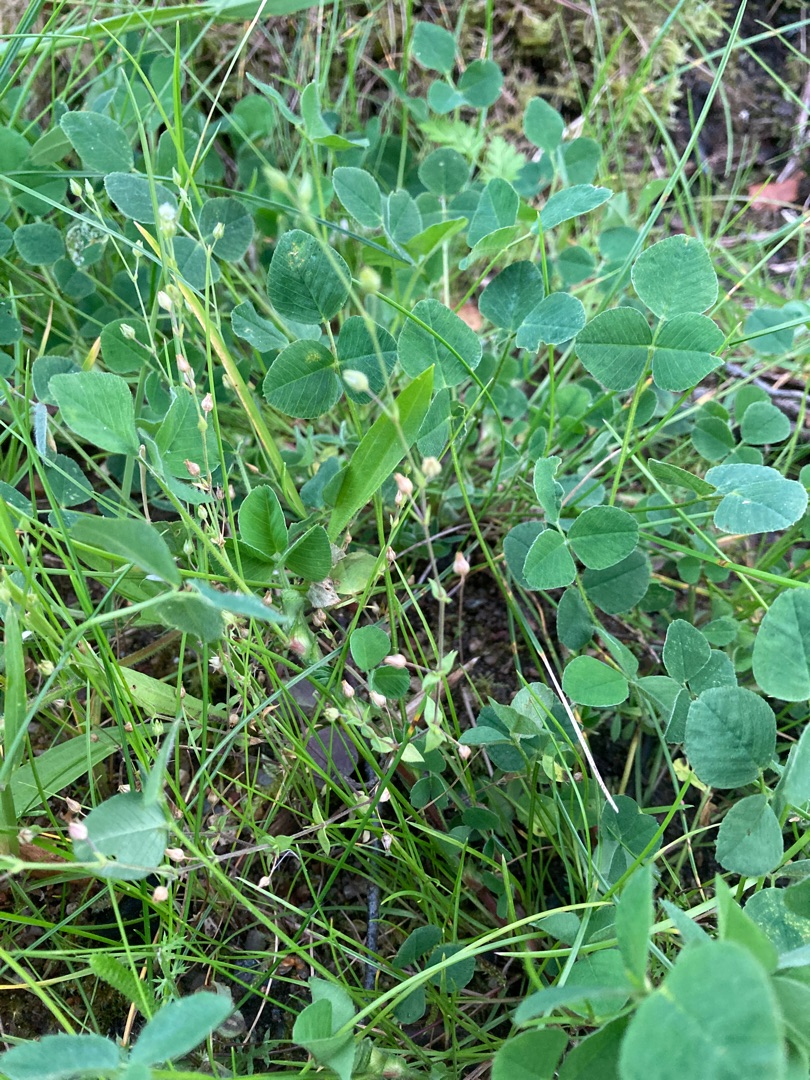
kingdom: Plantae
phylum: Tracheophyta
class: Magnoliopsida
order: Caryophyllales
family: Caryophyllaceae
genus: Arenaria
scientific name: Arenaria serpyllifolia
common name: Almindelig markarve
